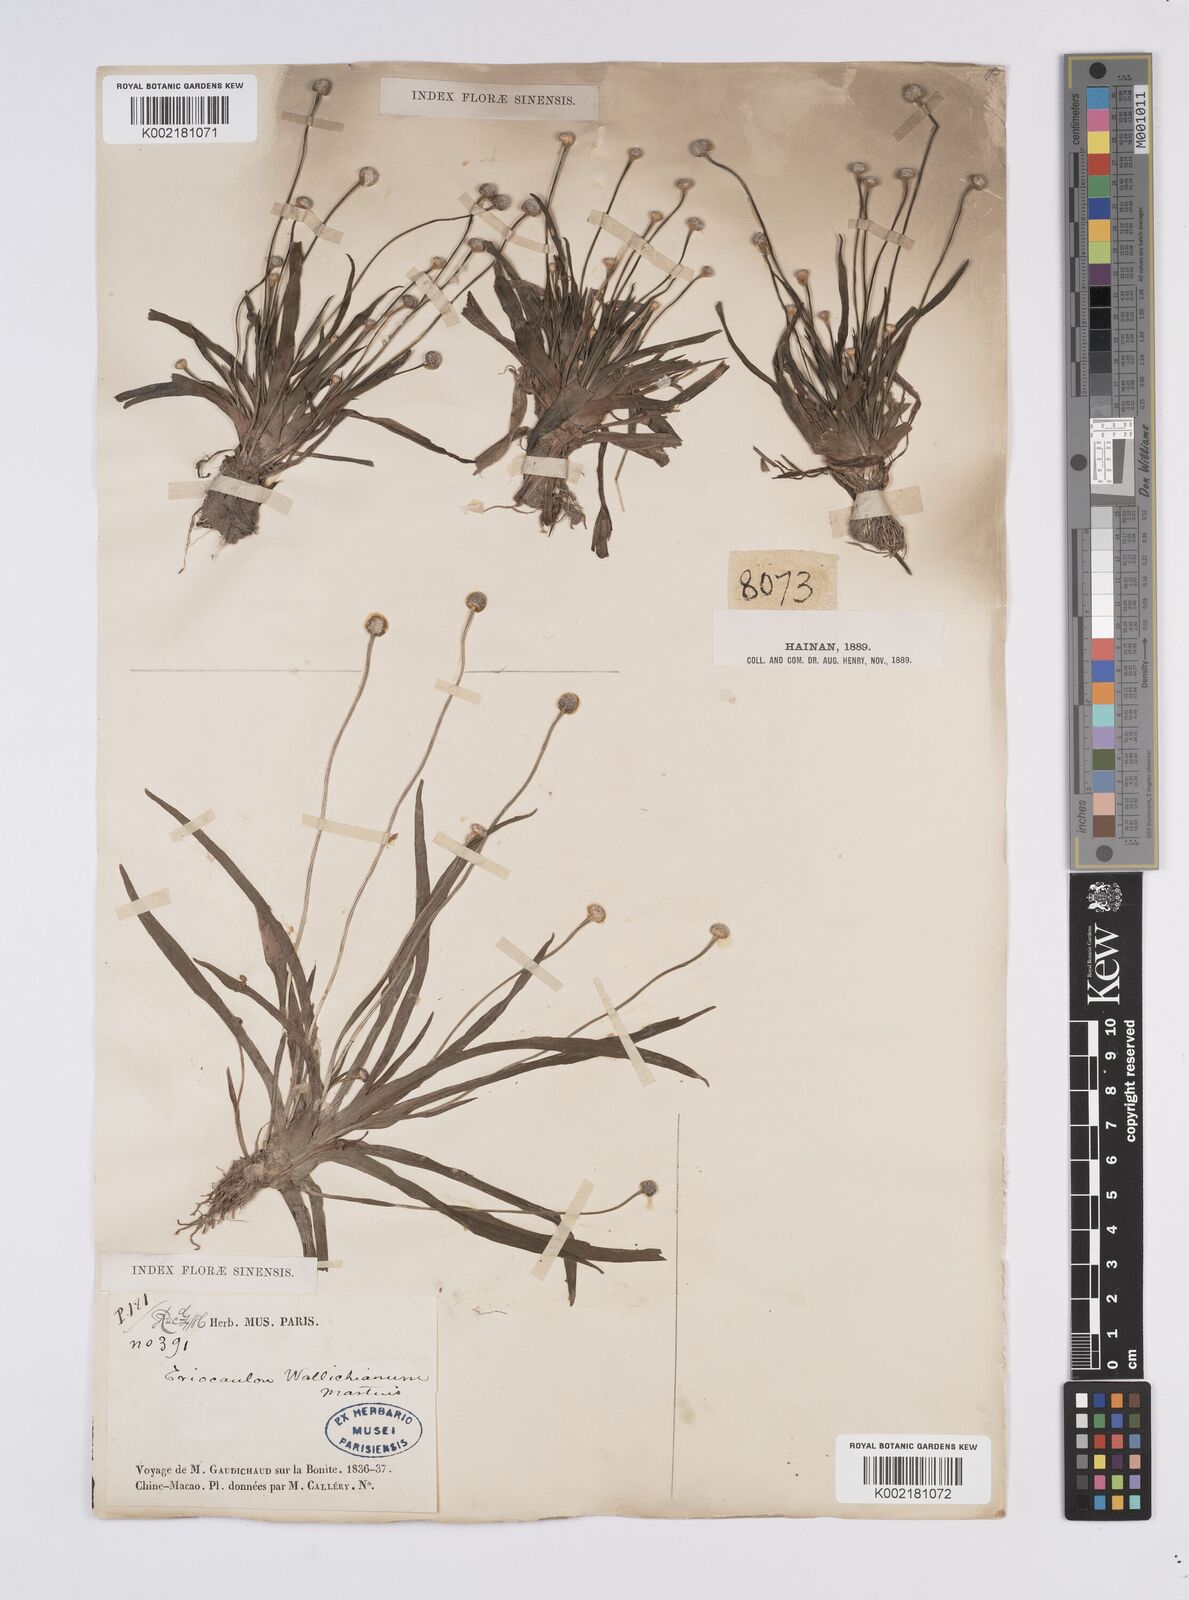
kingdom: Plantae
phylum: Tracheophyta
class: Liliopsida
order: Poales
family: Eriocaulaceae
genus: Eriocaulon
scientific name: Eriocaulon sexangulare
